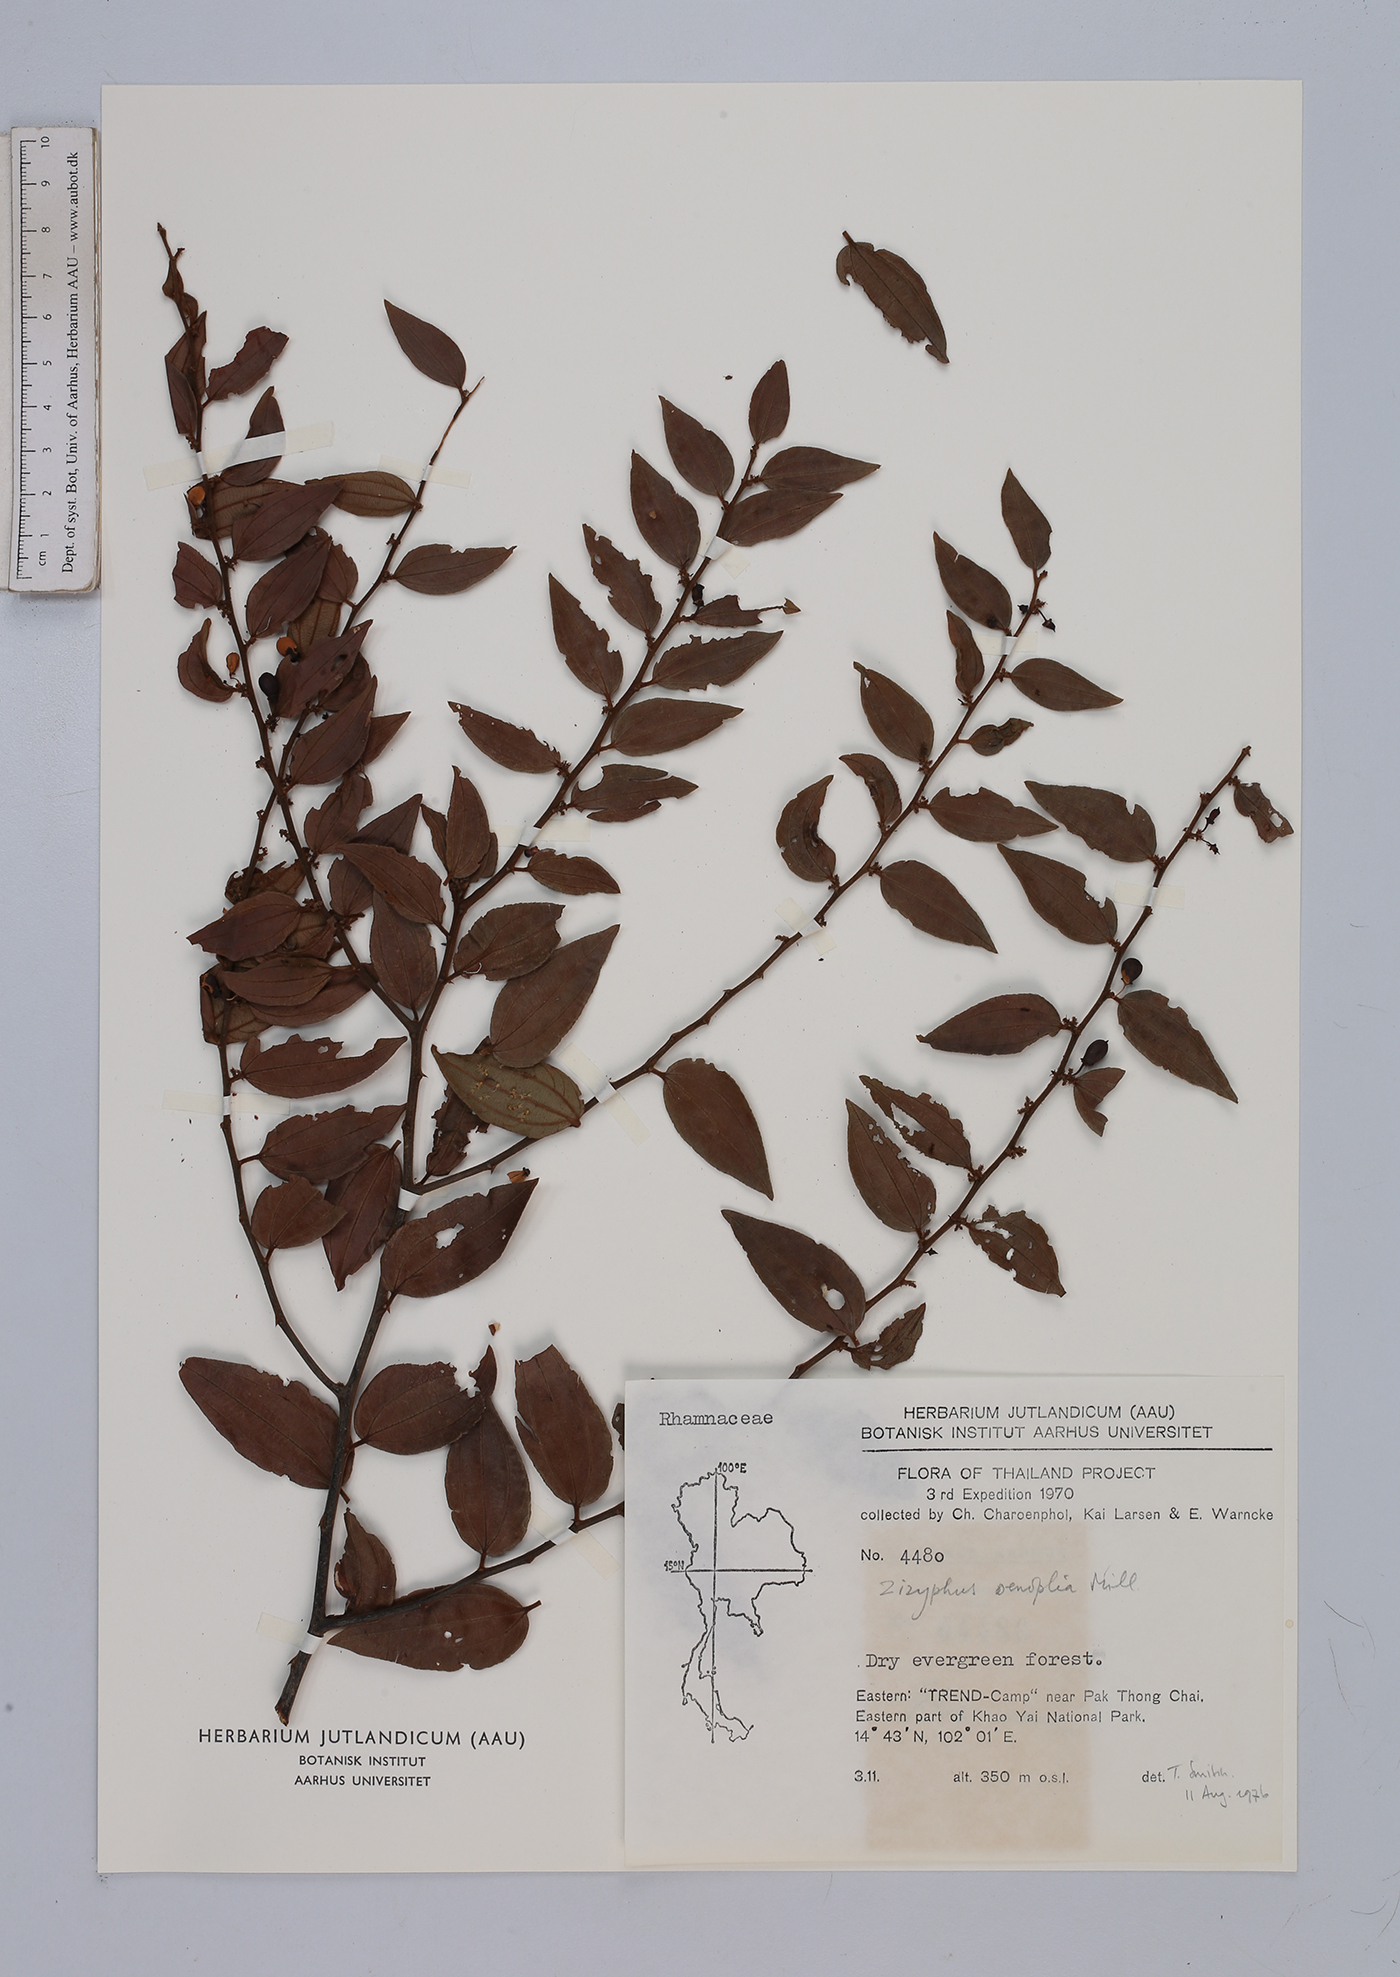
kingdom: Plantae
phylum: Tracheophyta
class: Magnoliopsida
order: Rosales
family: Rhamnaceae
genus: Ziziphus
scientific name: Ziziphus oenopolia
